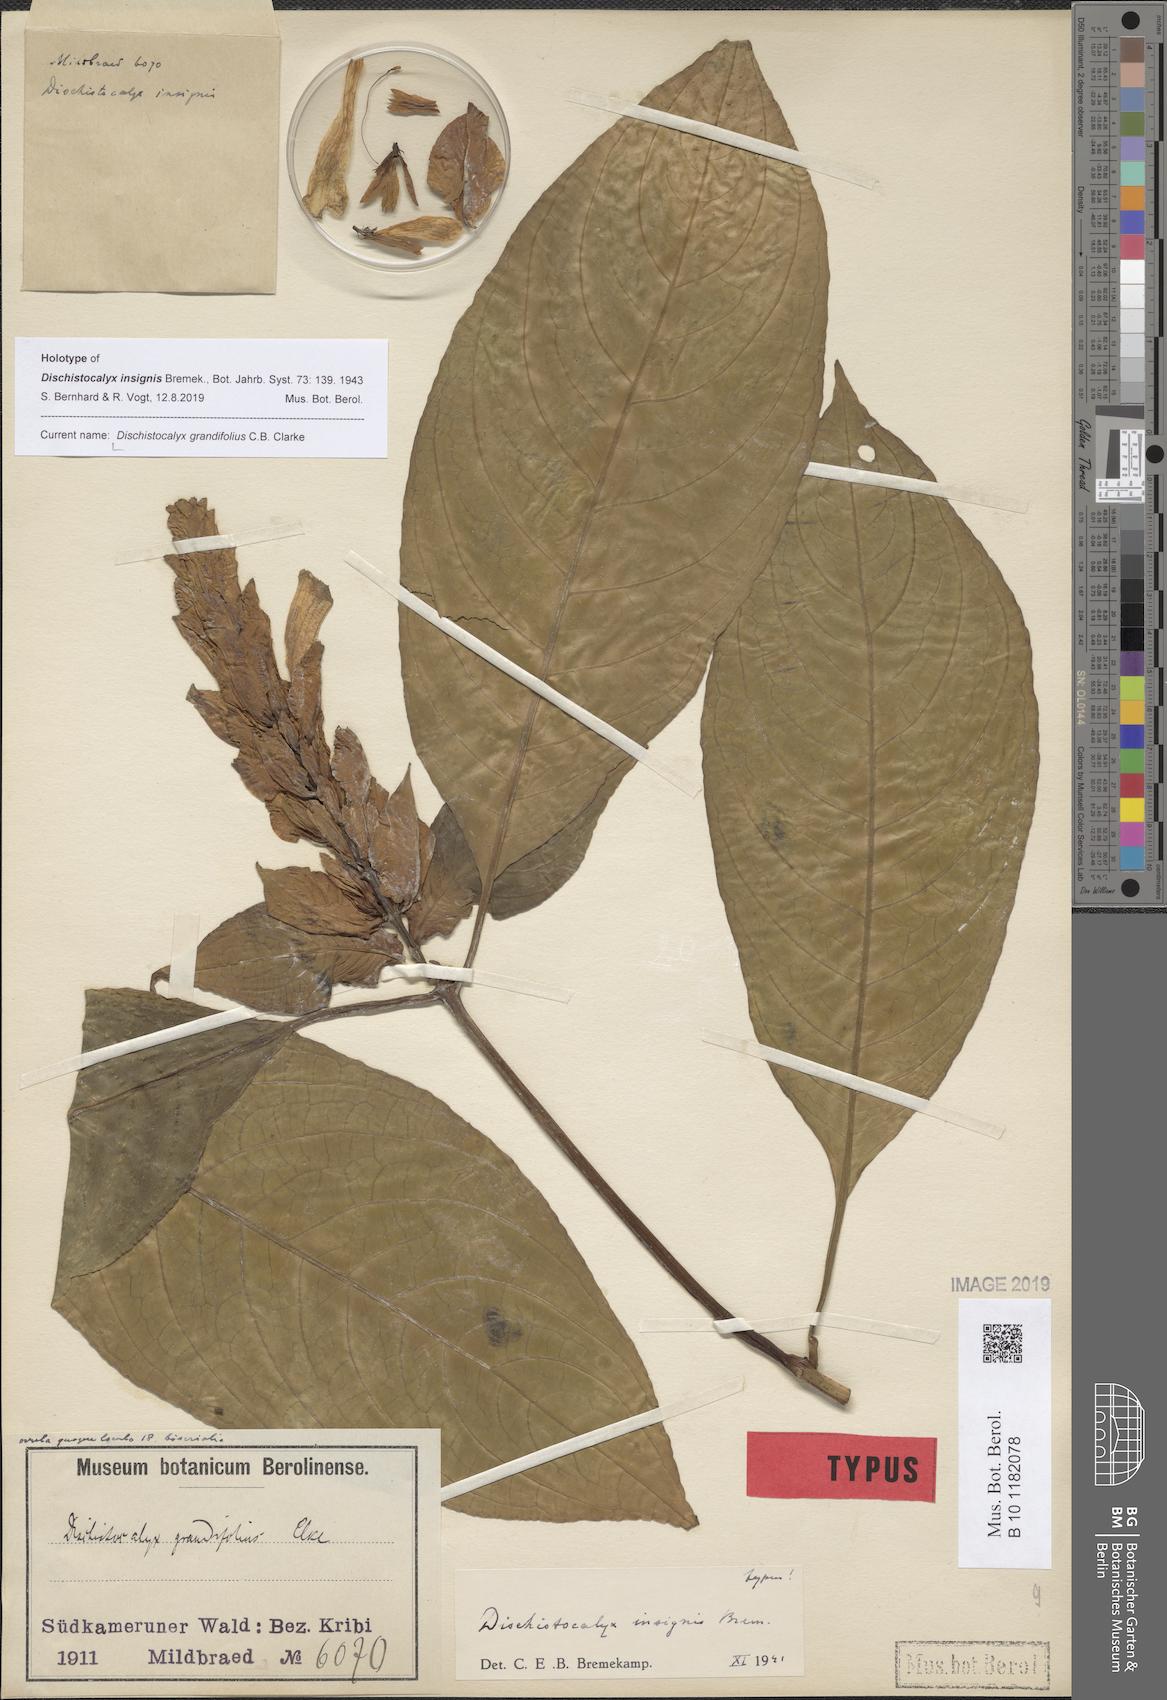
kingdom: Plantae
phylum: Tracheophyta
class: Magnoliopsida
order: Lamiales
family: Acanthaceae
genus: Dischistocalyx
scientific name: Dischistocalyx grandifolius
